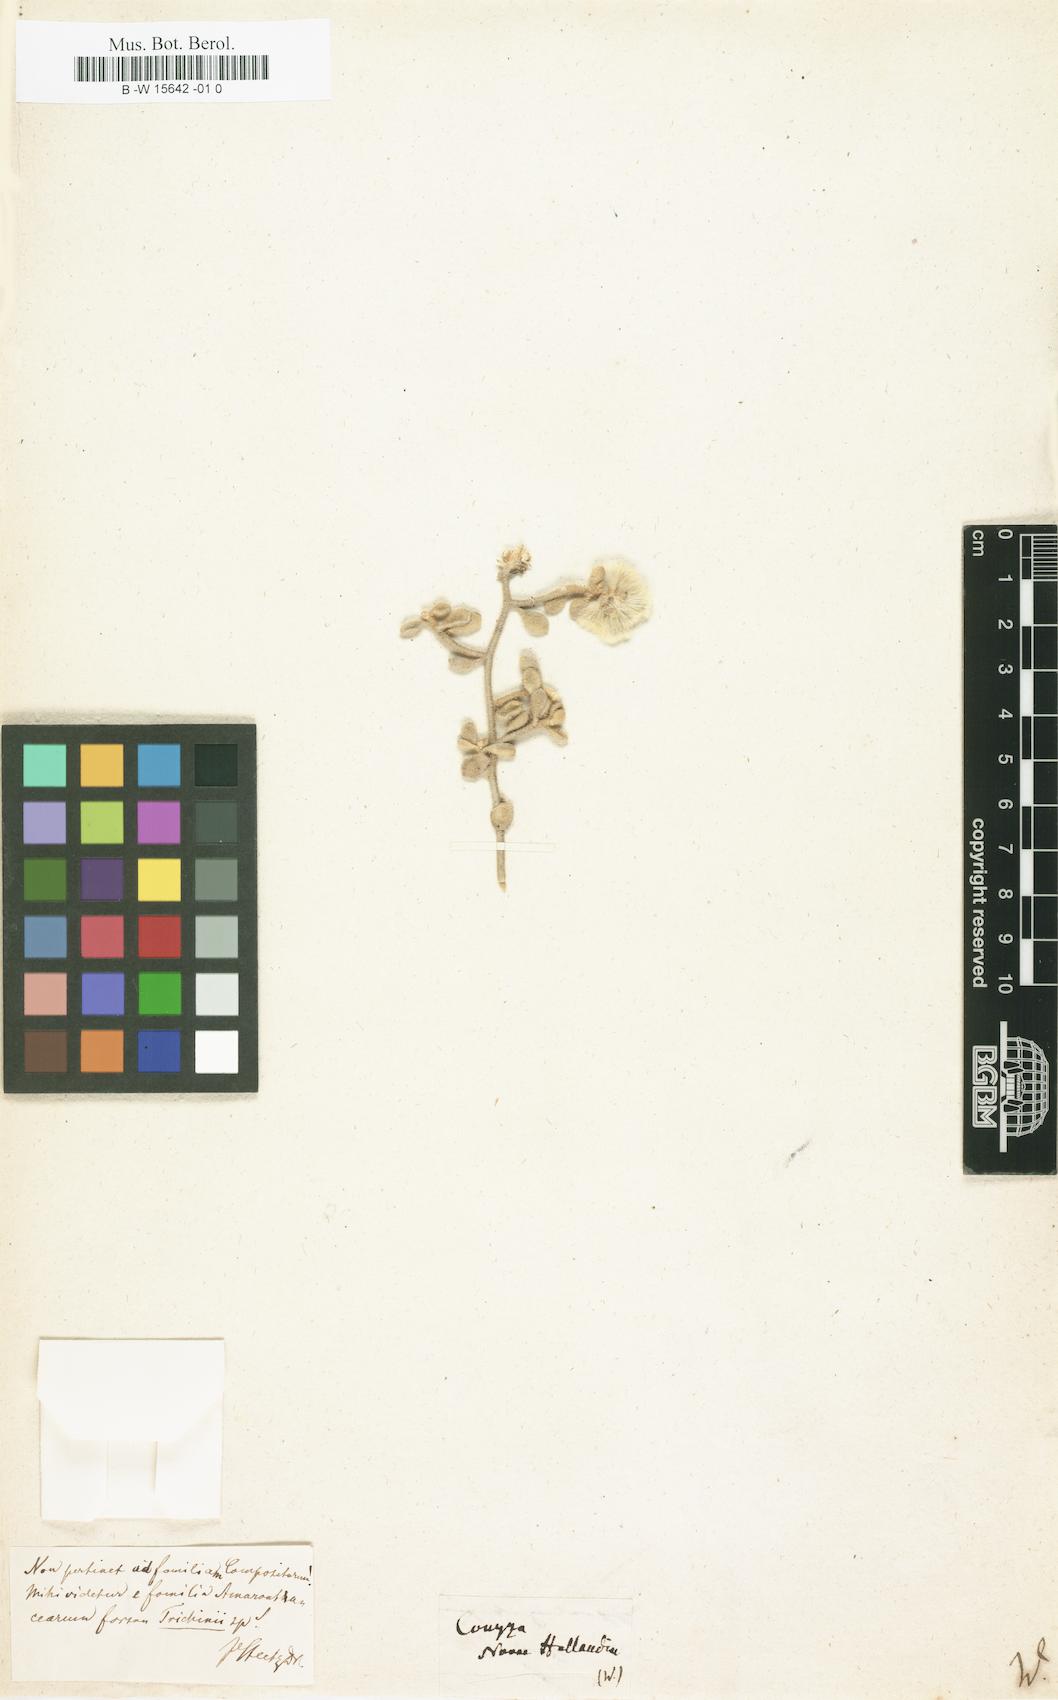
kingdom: Plantae
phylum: Tracheophyta
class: Magnoliopsida
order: Asterales
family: Asteraceae
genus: Conyza
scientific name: Conyza
